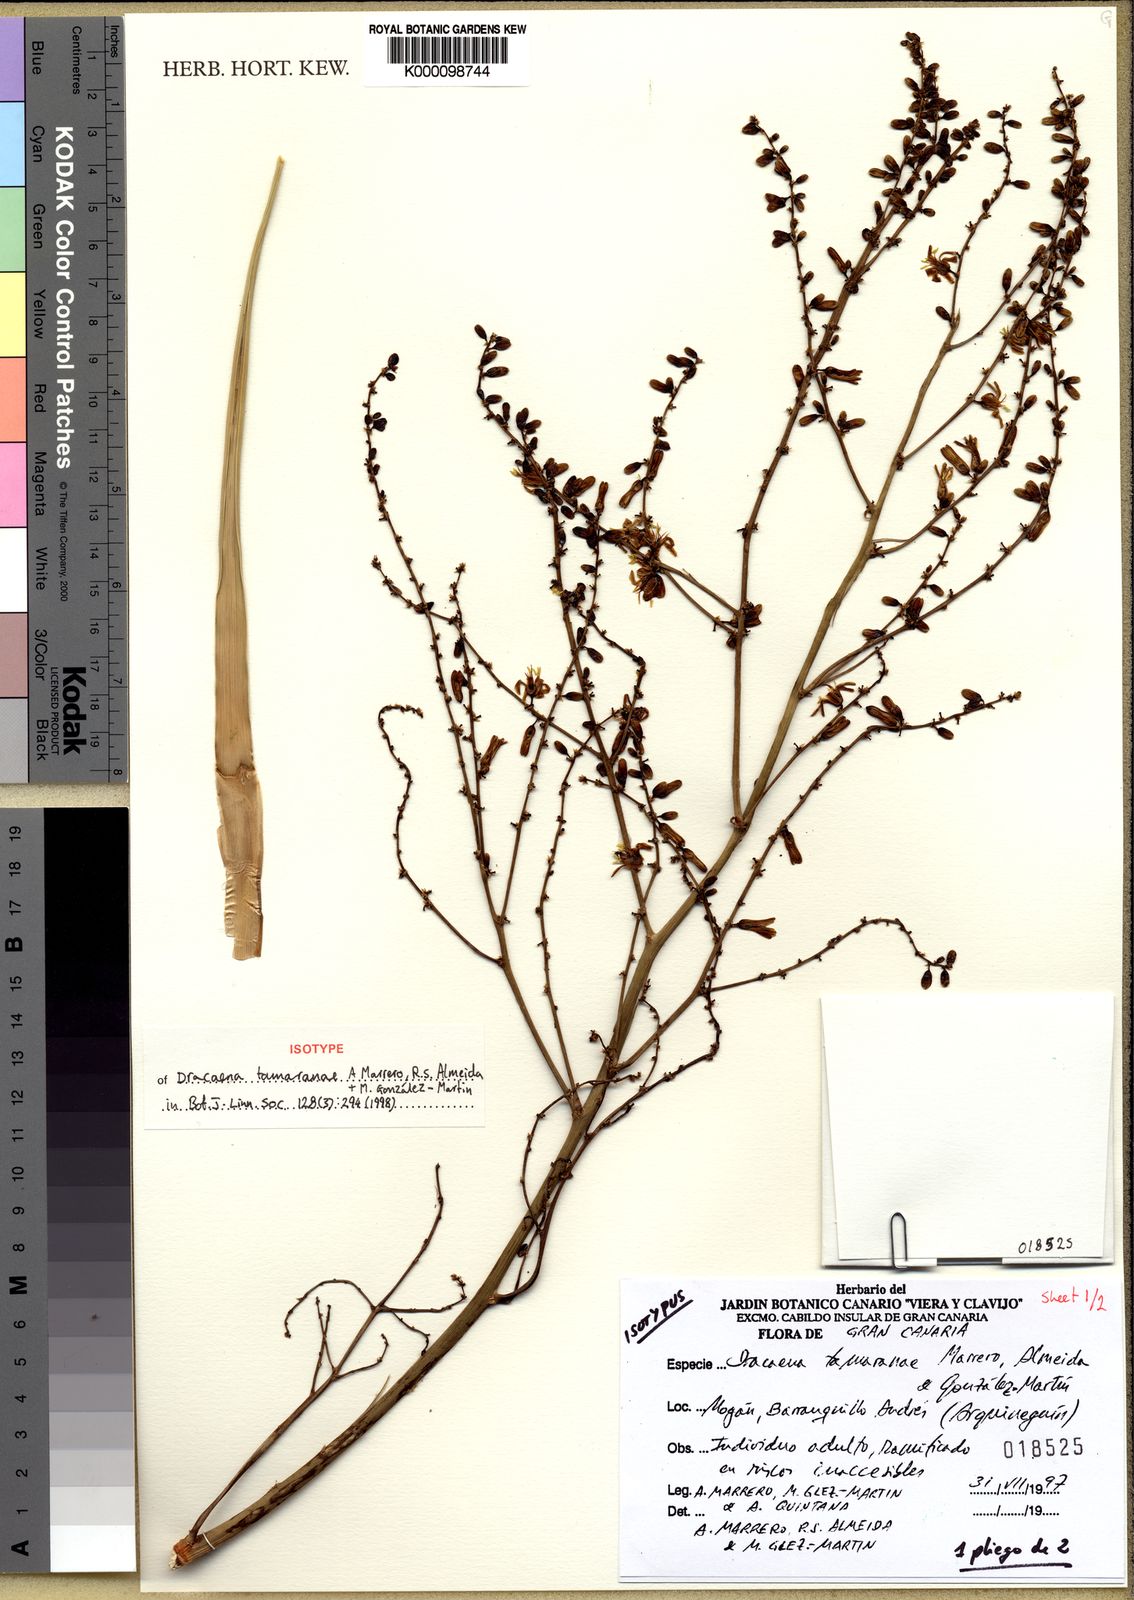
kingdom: Plantae
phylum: Tracheophyta
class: Liliopsida
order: Asparagales
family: Asparagaceae
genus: Dracaena
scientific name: Dracaena
